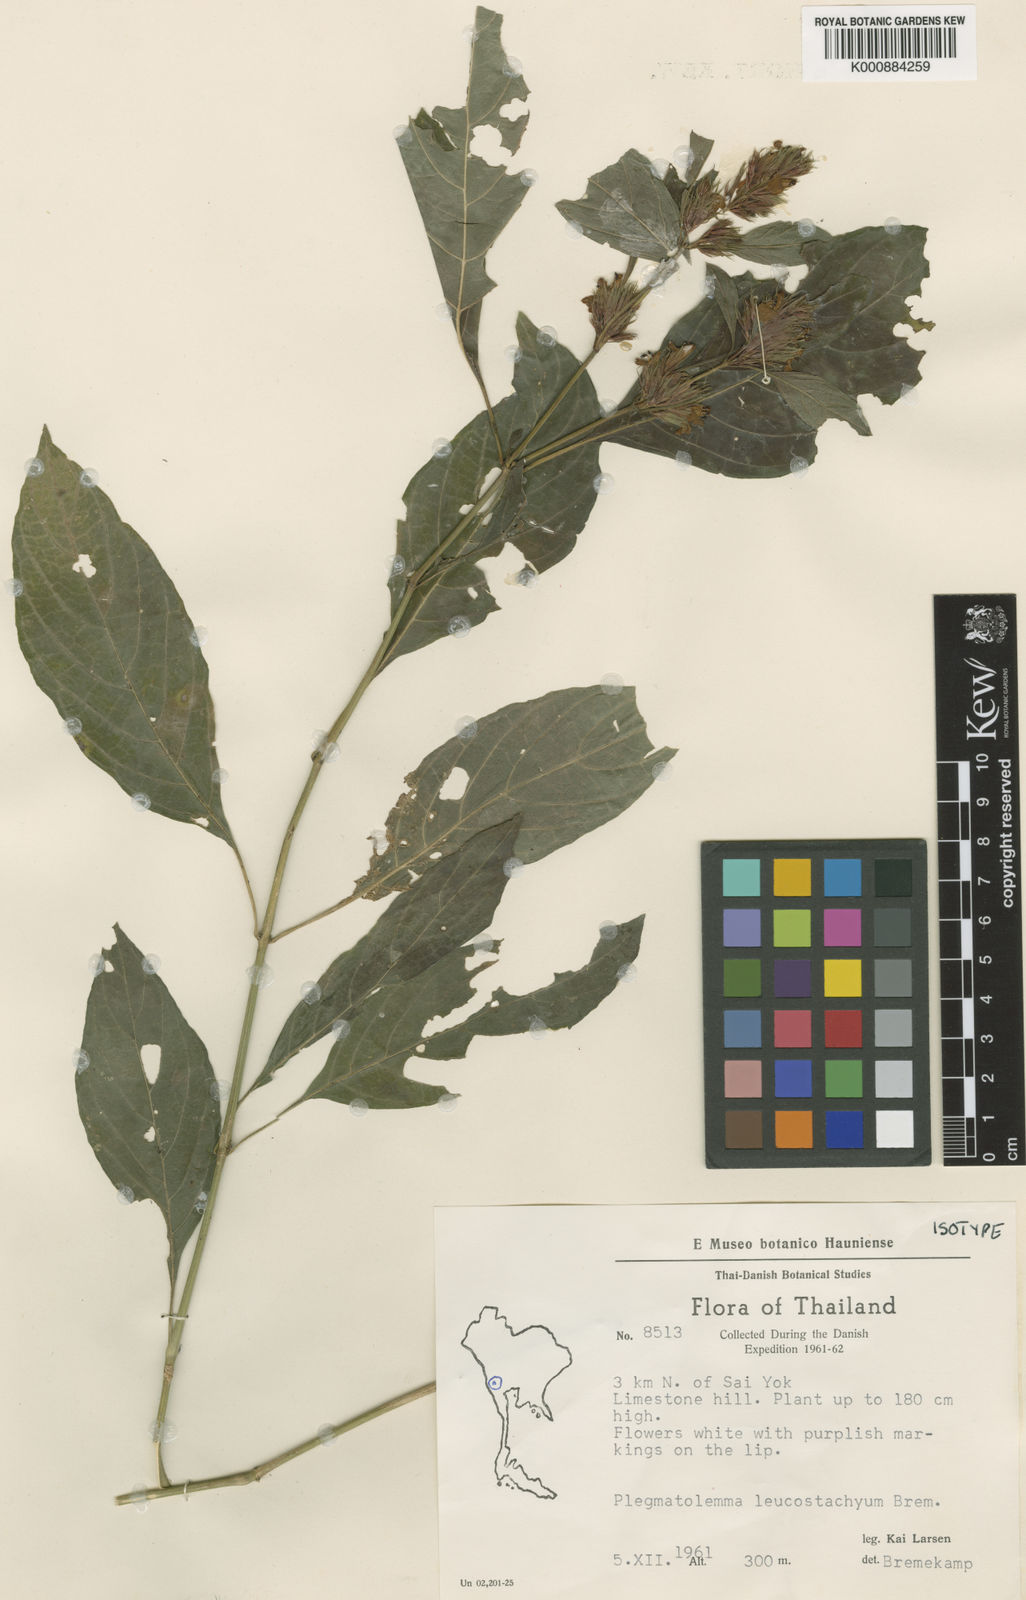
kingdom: Plantae
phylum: Tracheophyta
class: Magnoliopsida
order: Lamiales
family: Acanthaceae
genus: Justicia
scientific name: Justicia leucostachya
